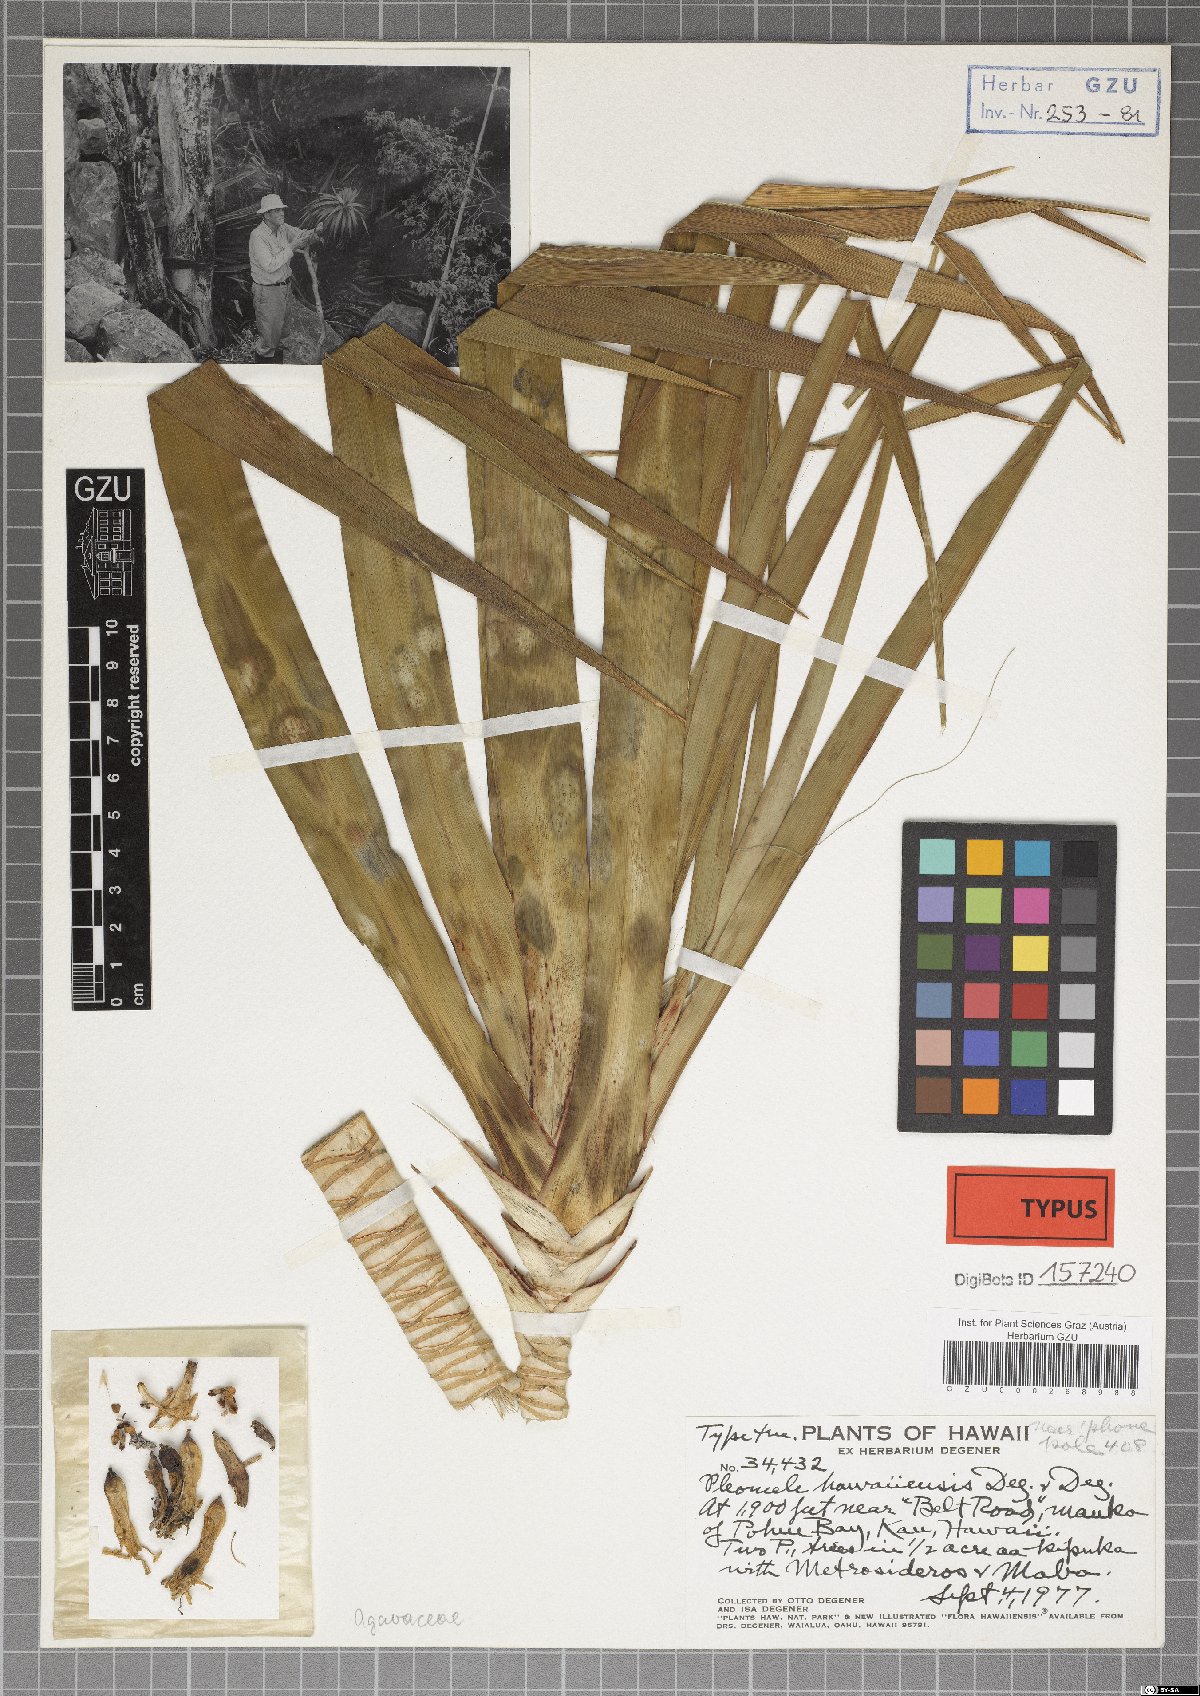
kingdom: Plantae
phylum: Tracheophyta
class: Liliopsida
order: Asparagales
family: Asparagaceae
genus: Dracaena
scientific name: Dracaena konaensis
